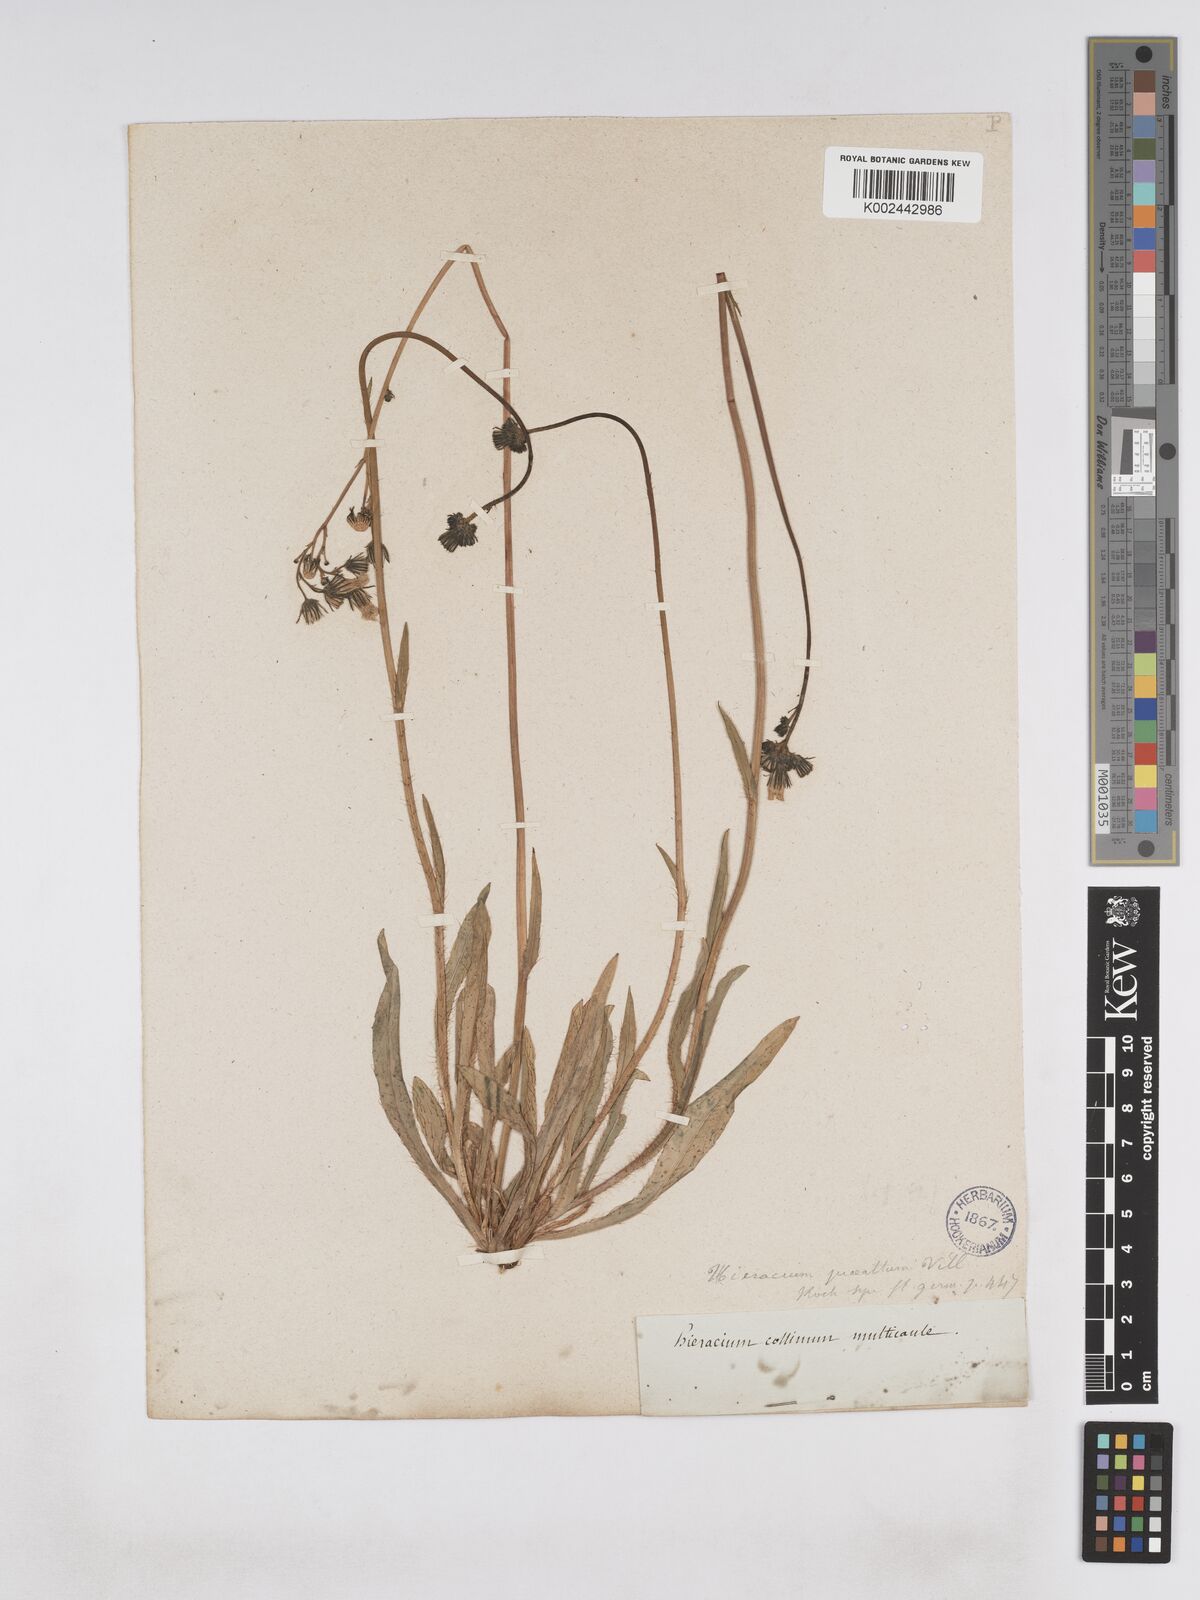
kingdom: Plantae
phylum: Tracheophyta
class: Magnoliopsida
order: Asterales
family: Asteraceae
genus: Pilosella
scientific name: Pilosella piloselloides
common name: Glaucous king-devil
